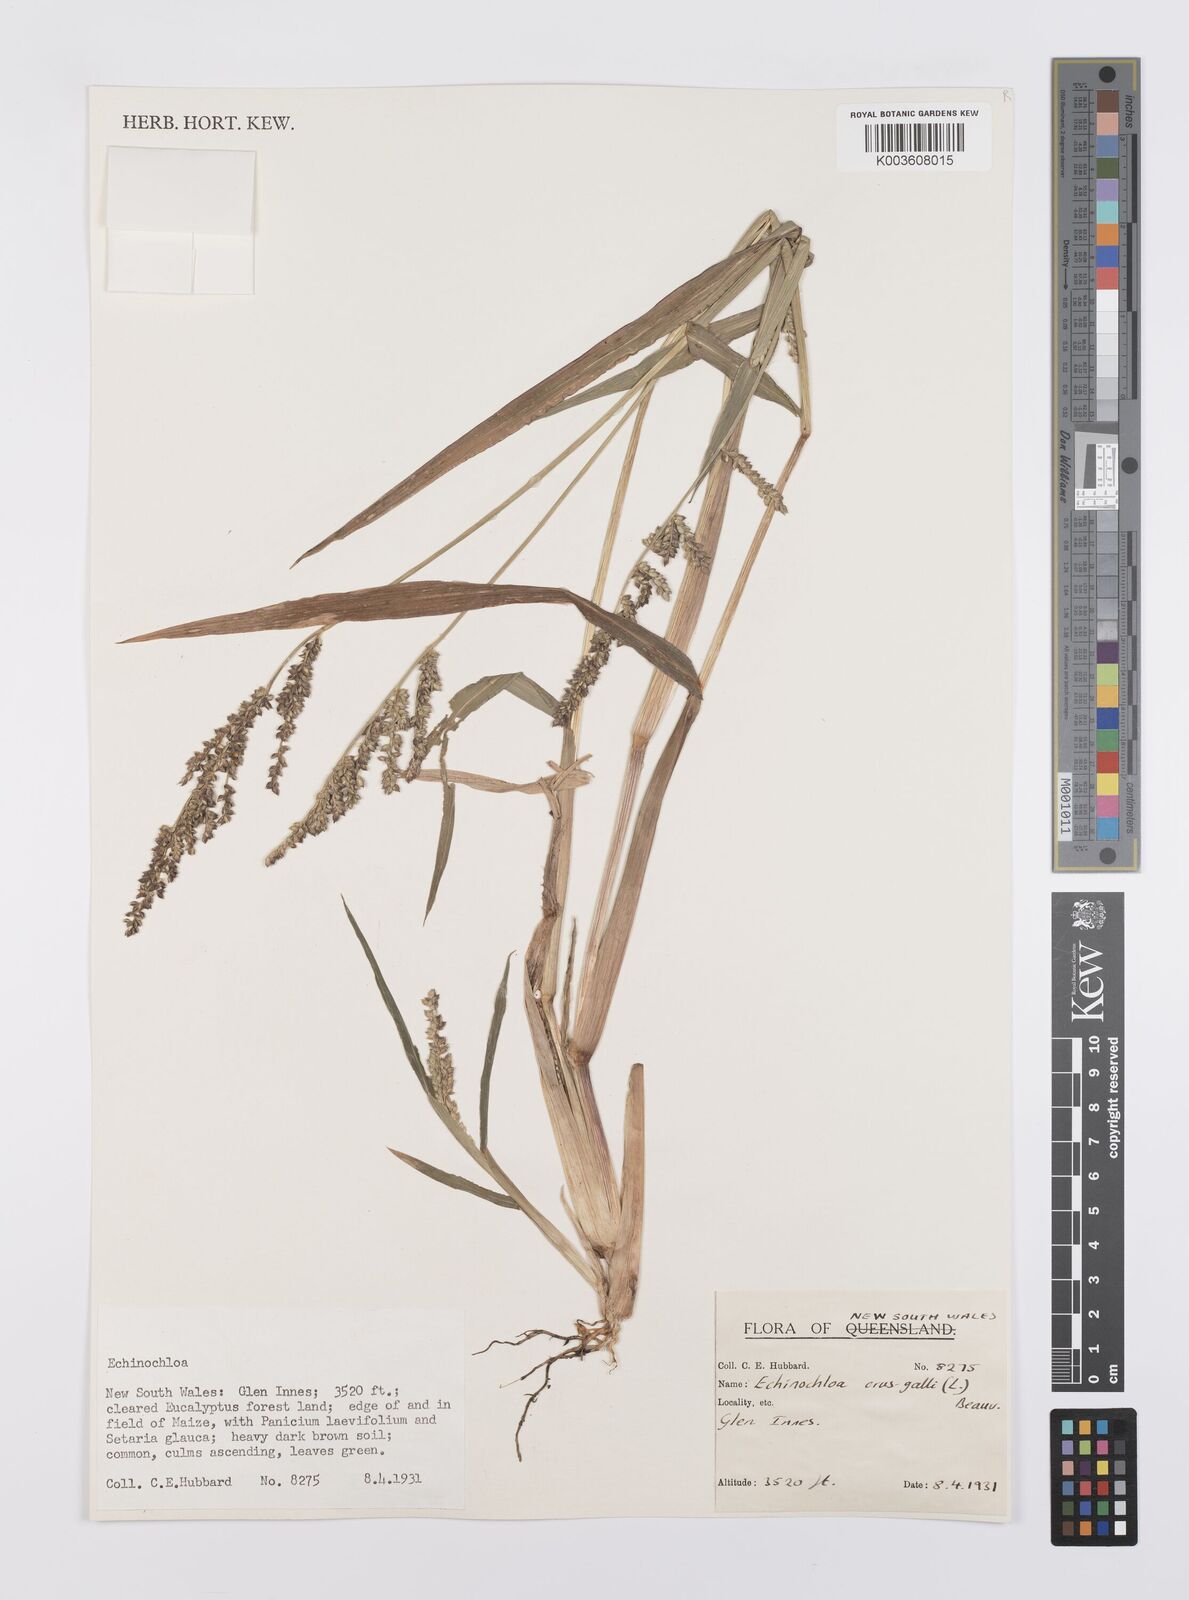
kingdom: Plantae
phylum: Tracheophyta
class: Liliopsida
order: Poales
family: Poaceae
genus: Echinochloa
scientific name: Echinochloa crus-galli
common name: Cockspur
